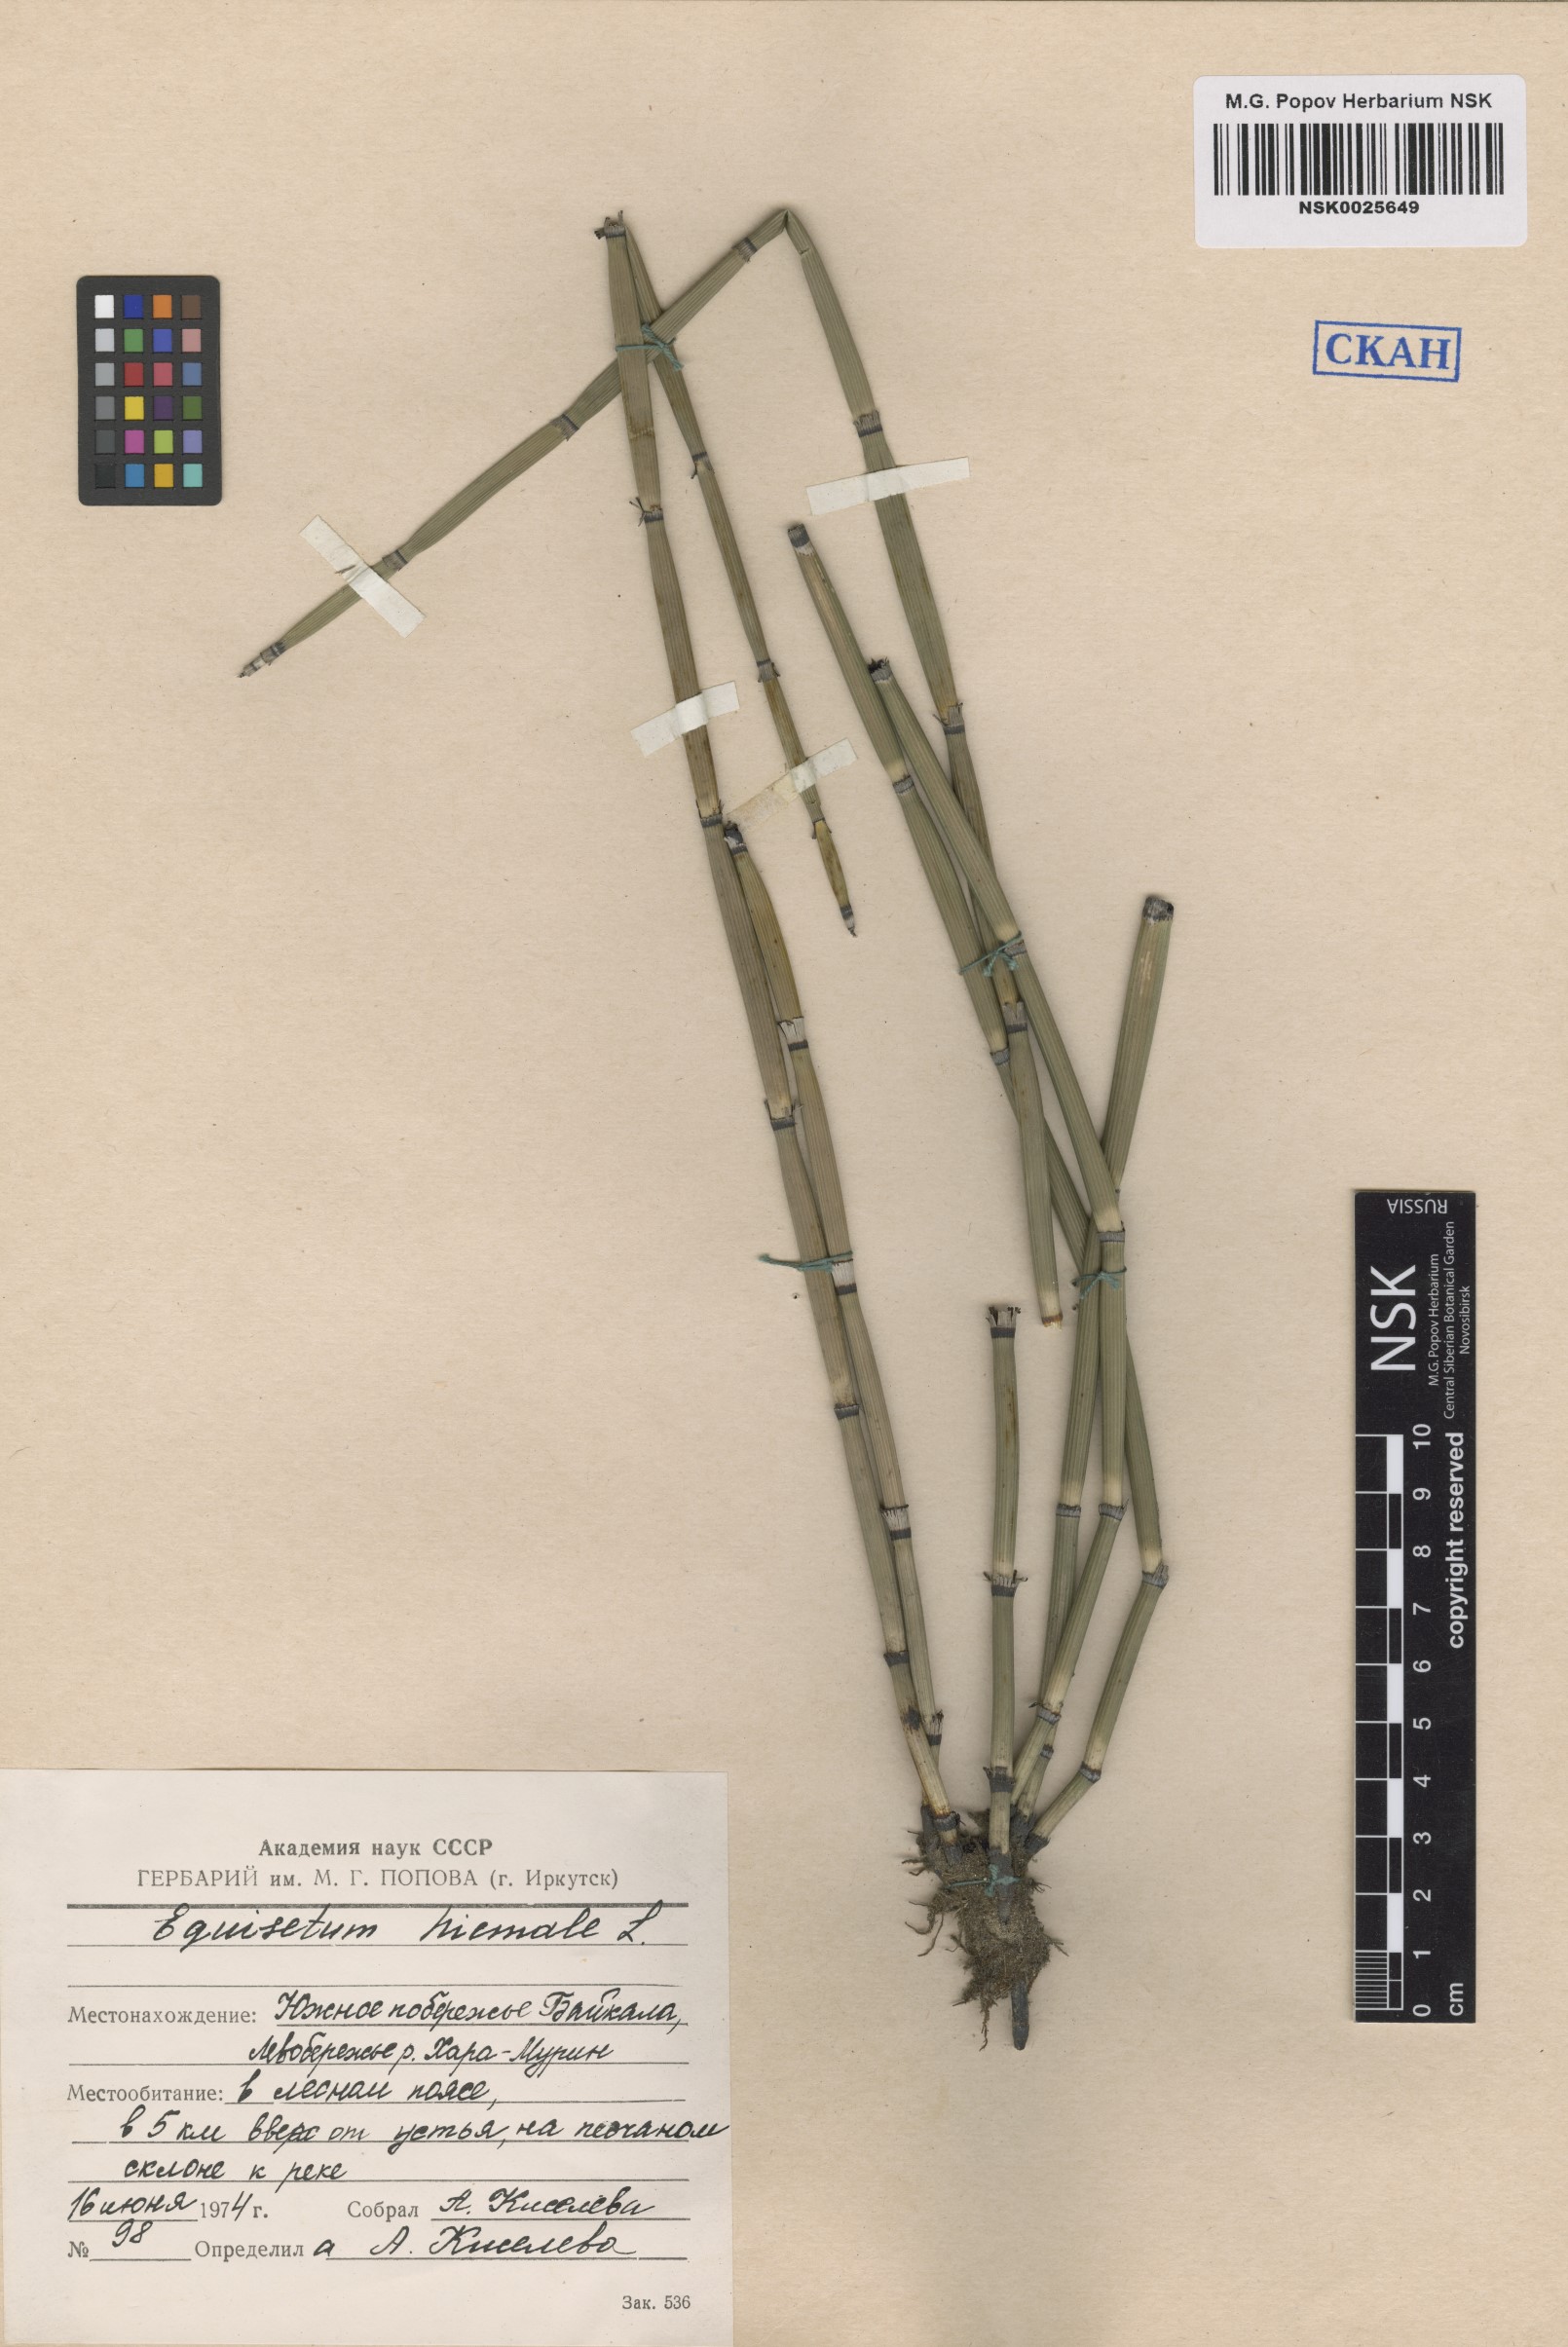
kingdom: Plantae
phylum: Tracheophyta
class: Polypodiopsida
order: Equisetales
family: Equisetaceae
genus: Equisetum
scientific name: Equisetum hyemale
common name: Rough horsetail
